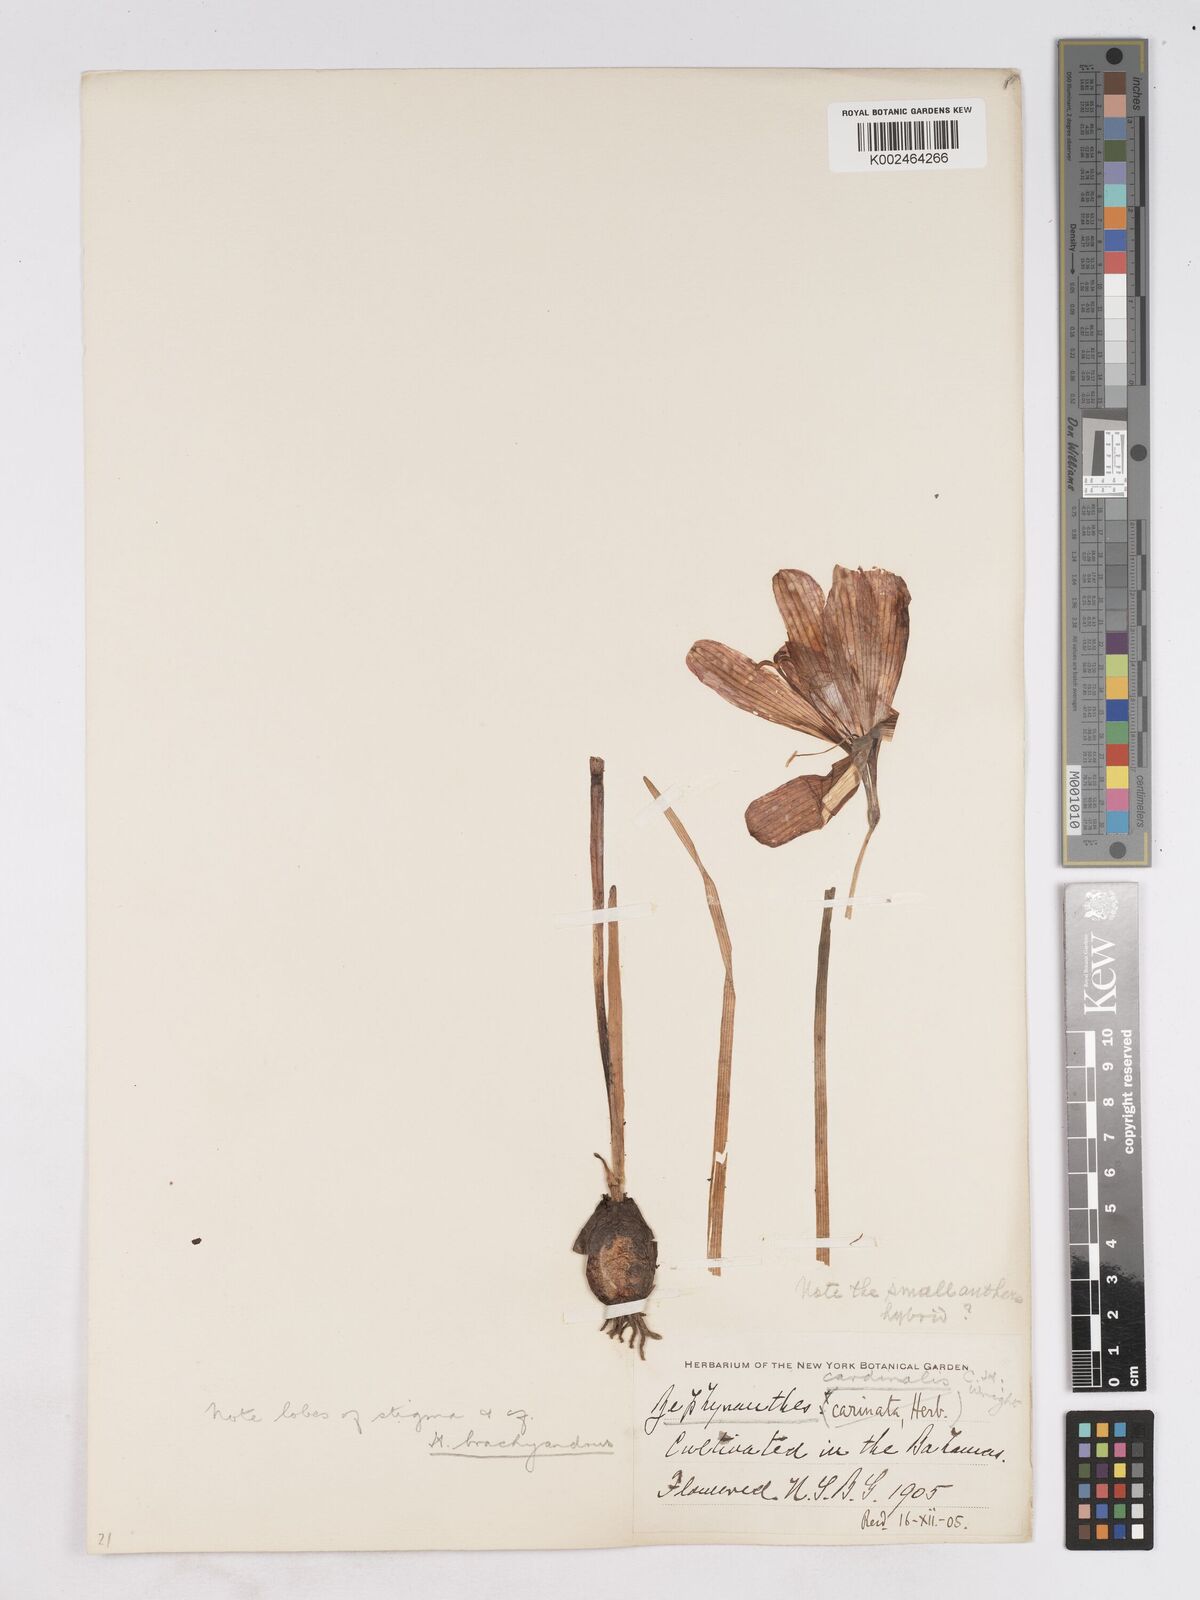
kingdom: Plantae
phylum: Tracheophyta
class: Liliopsida
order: Asparagales
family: Amaryllidaceae
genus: Zephyranthes
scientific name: Zephyranthes cardinalis
